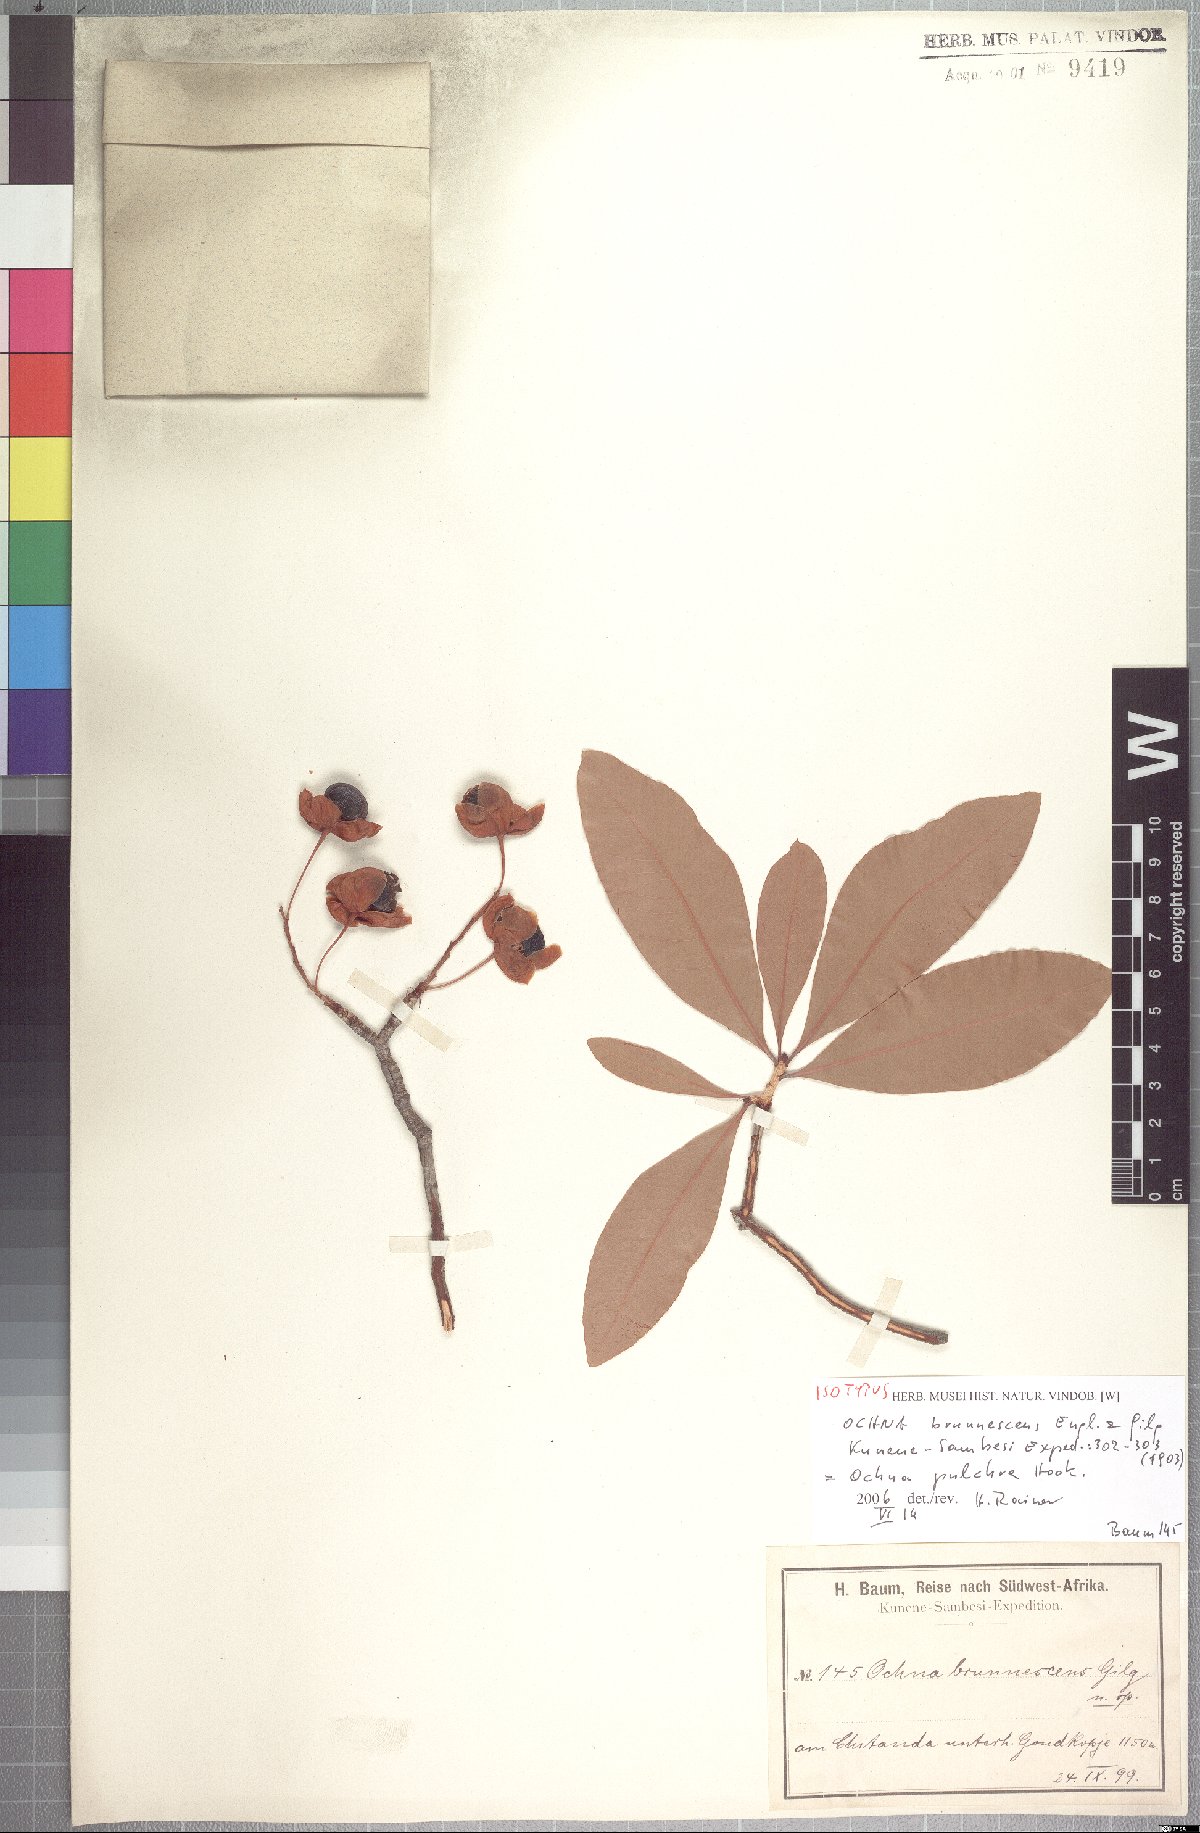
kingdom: Plantae
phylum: Tracheophyta
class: Magnoliopsida
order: Malpighiales
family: Ochnaceae
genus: Ochna
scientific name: Ochna pulchra
